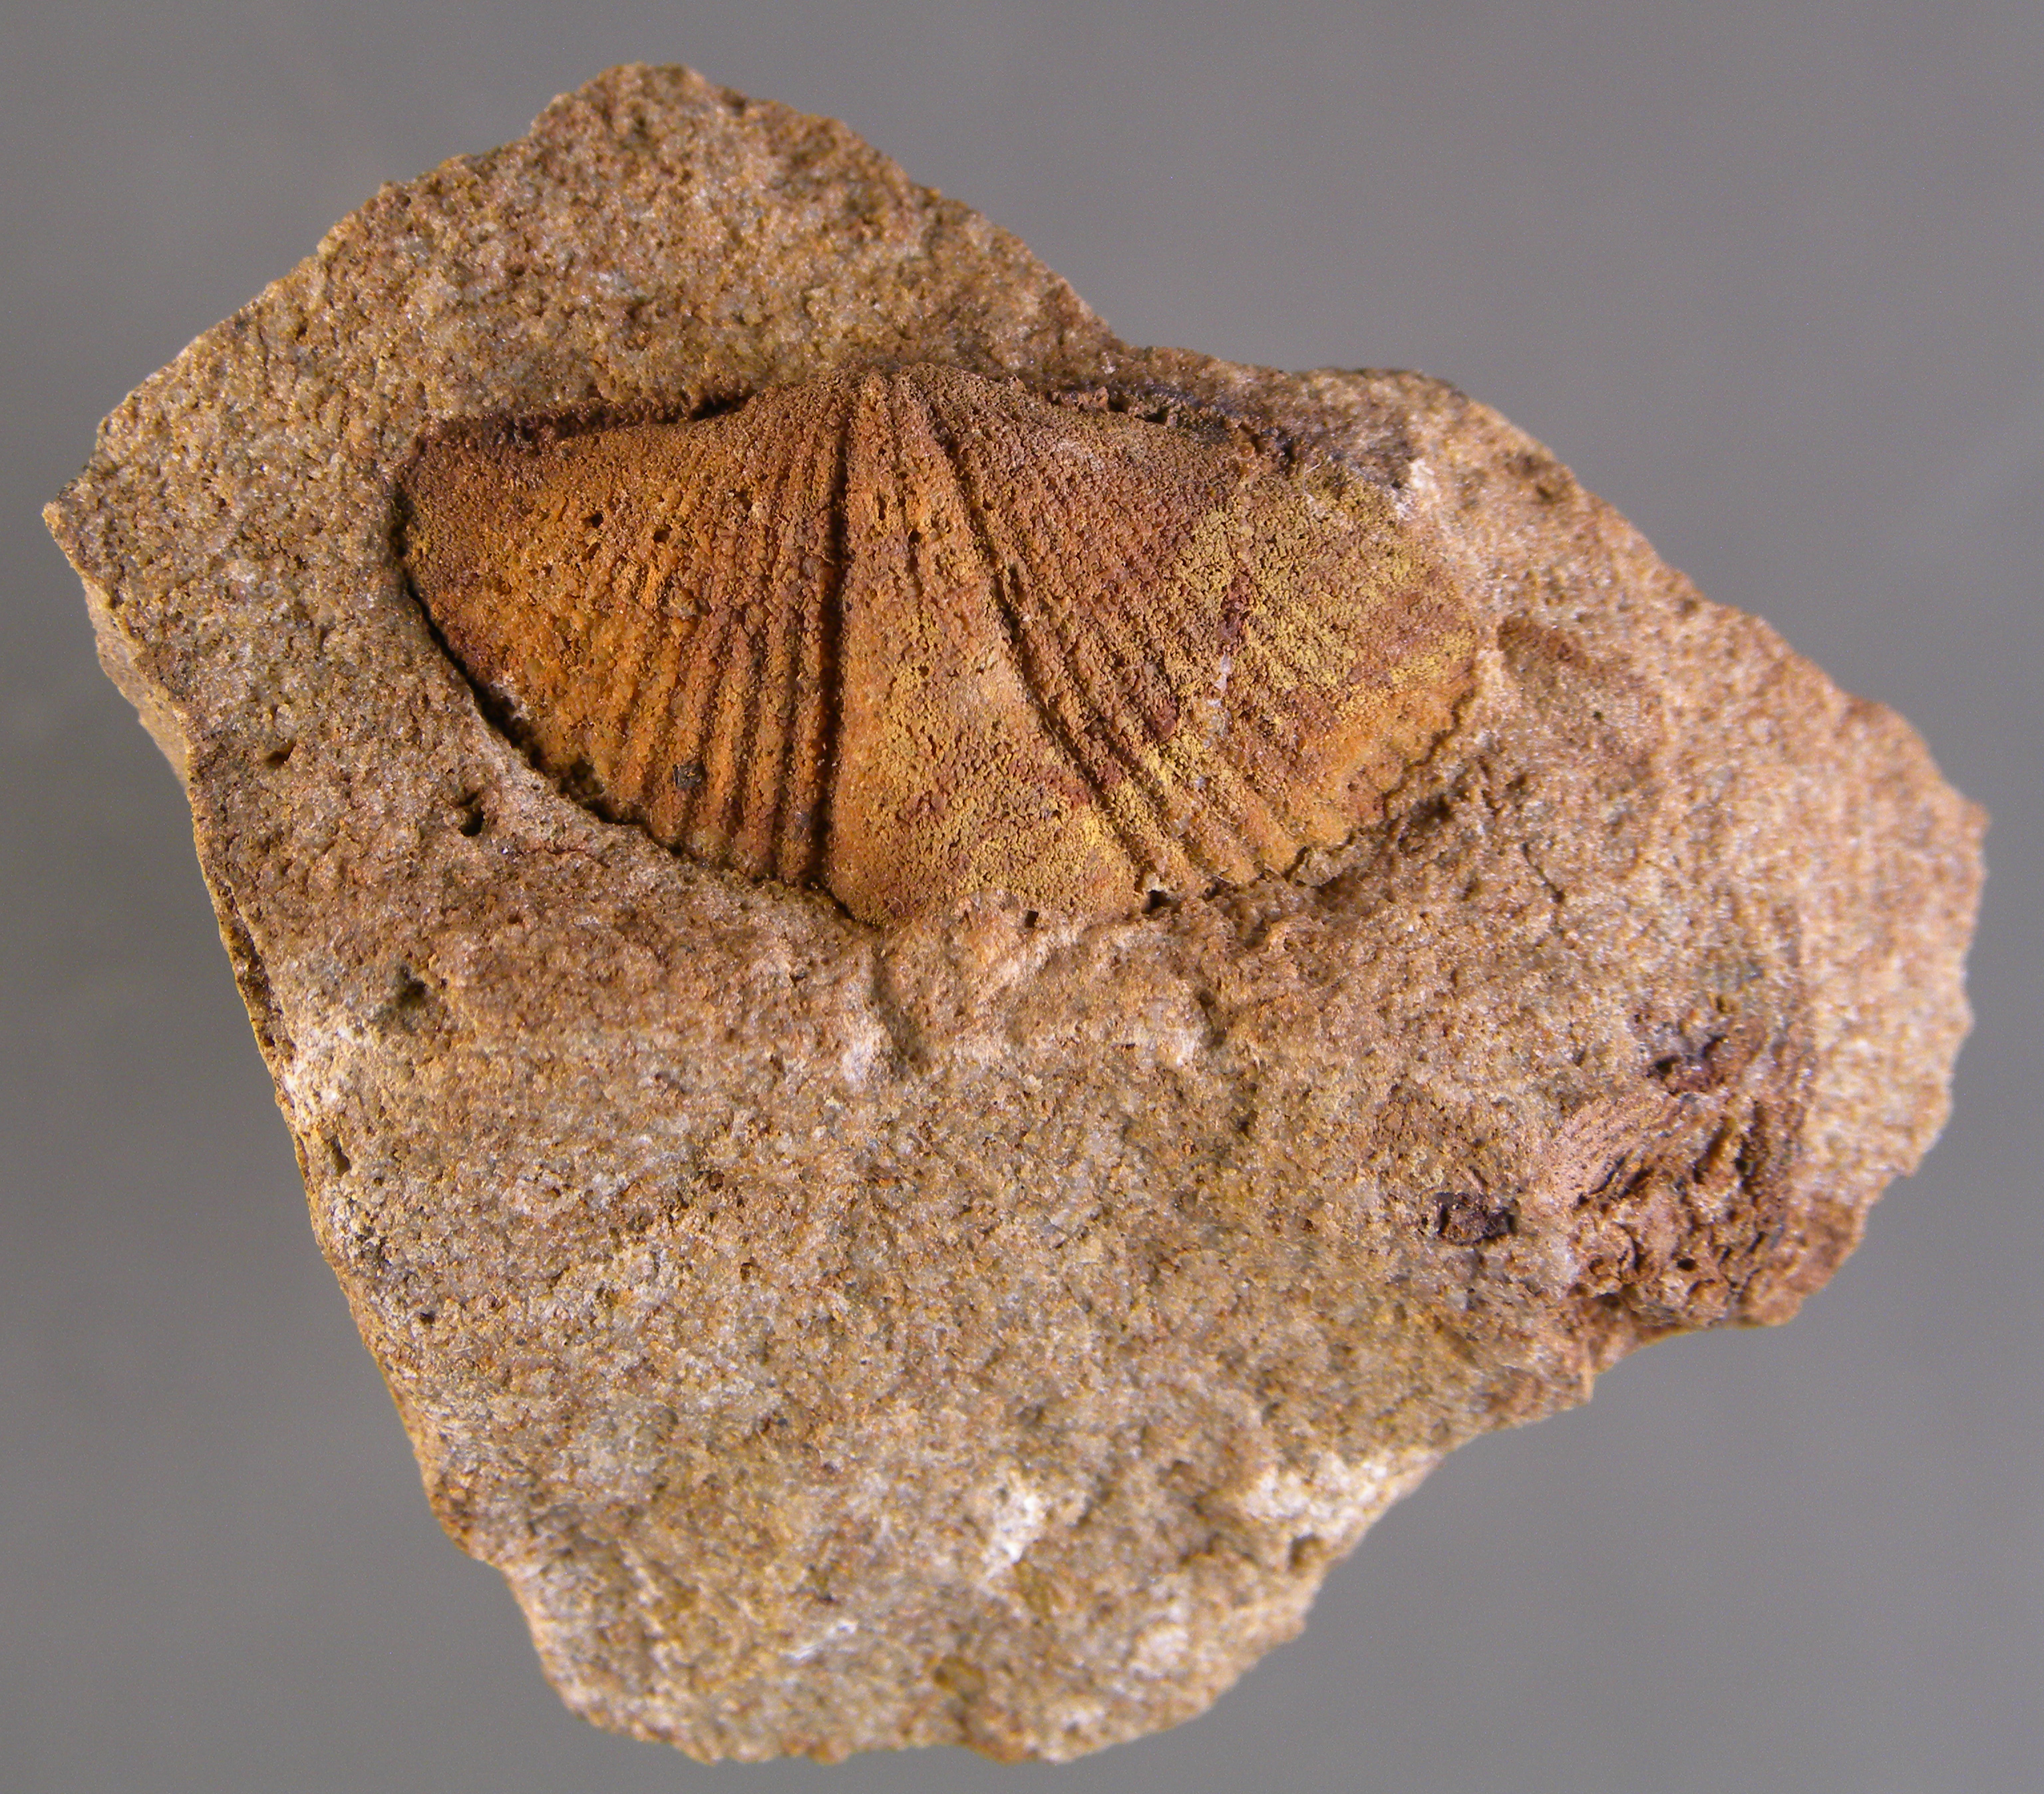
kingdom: Animalia
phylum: Brachiopoda
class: Rhynchonellata
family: Spinocyrtiidae
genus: Subcuspidella
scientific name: Subcuspidella
